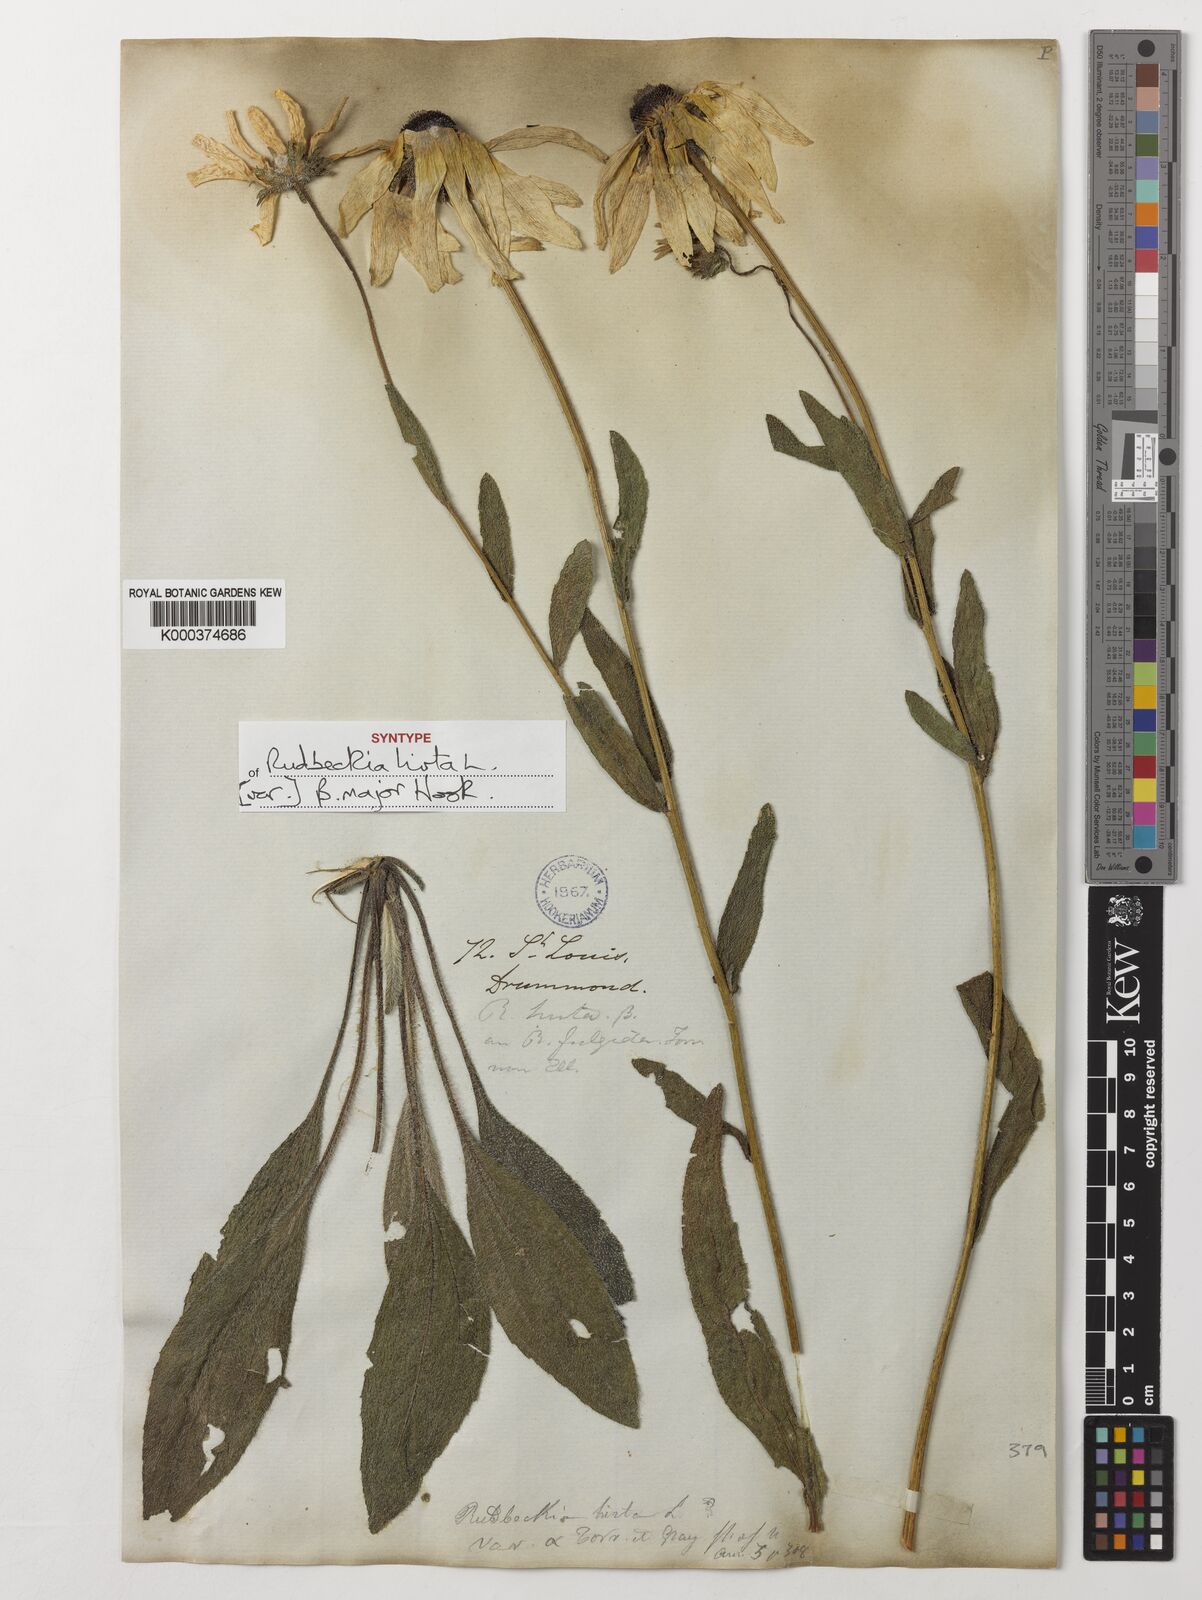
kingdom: Plantae
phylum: Tracheophyta
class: Magnoliopsida
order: Asterales
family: Asteraceae
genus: Rudbeckia
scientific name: Rudbeckia hirta
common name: Black-eyed-susan
